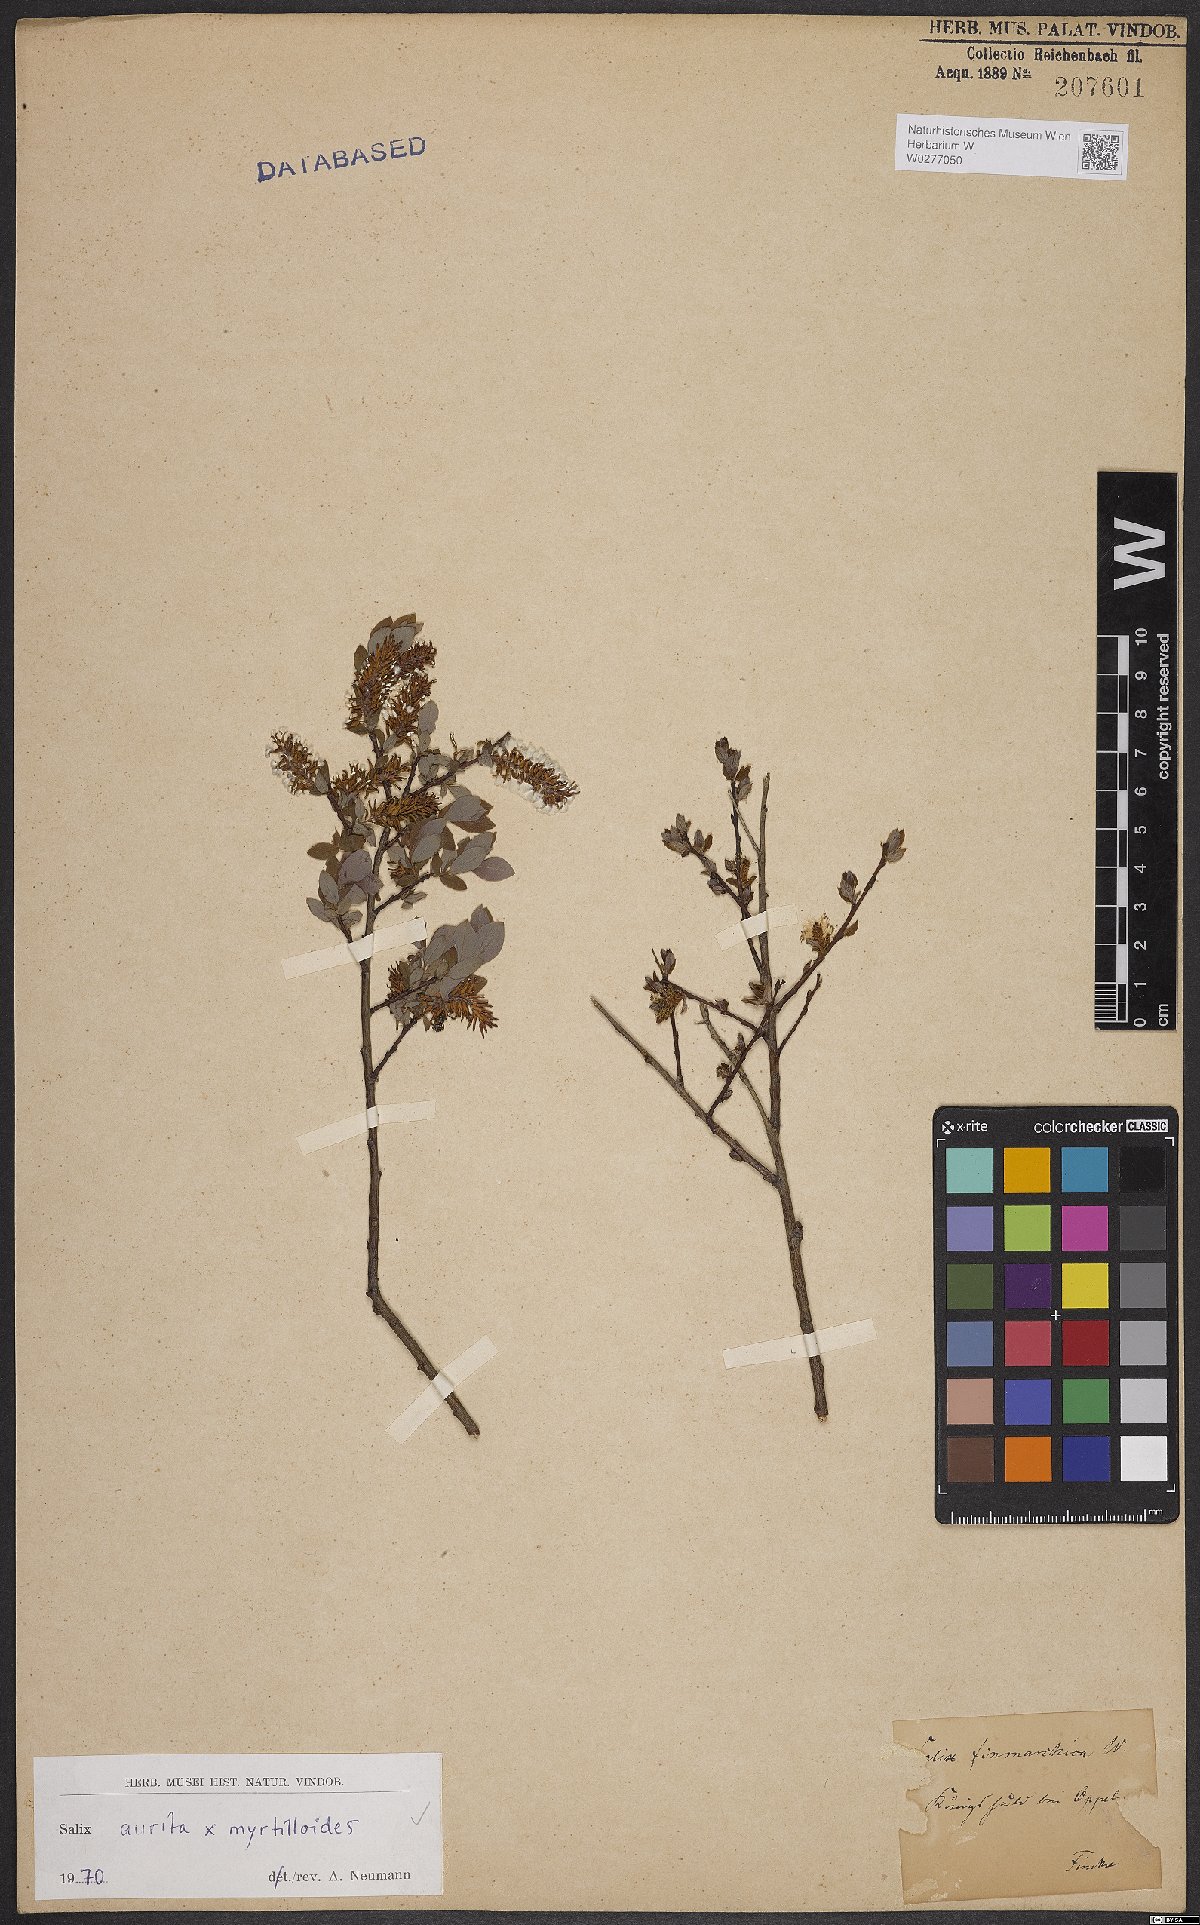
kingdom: Plantae
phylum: Tracheophyta
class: Magnoliopsida
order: Malpighiales
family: Salicaceae
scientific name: Salicaceae
